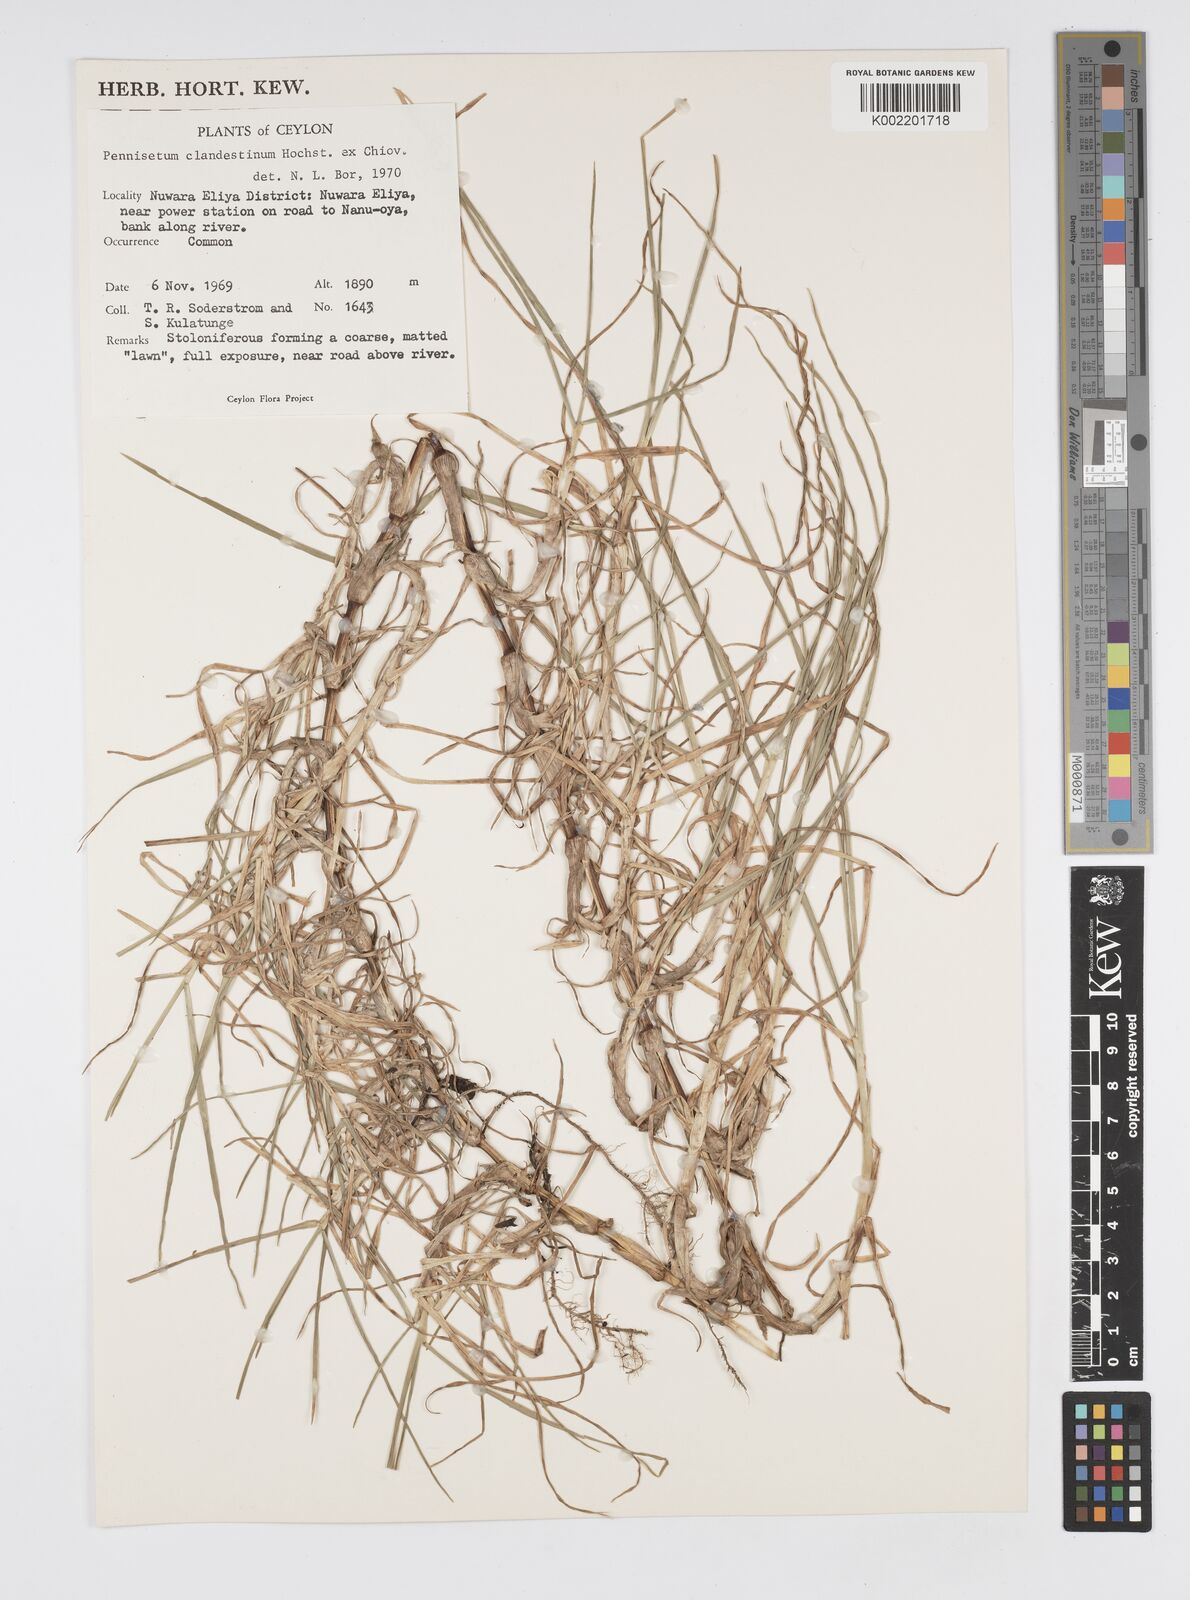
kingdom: Plantae
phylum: Tracheophyta
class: Liliopsida
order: Poales
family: Poaceae
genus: Cenchrus
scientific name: Cenchrus clandestinus
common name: Kikuyugrass
